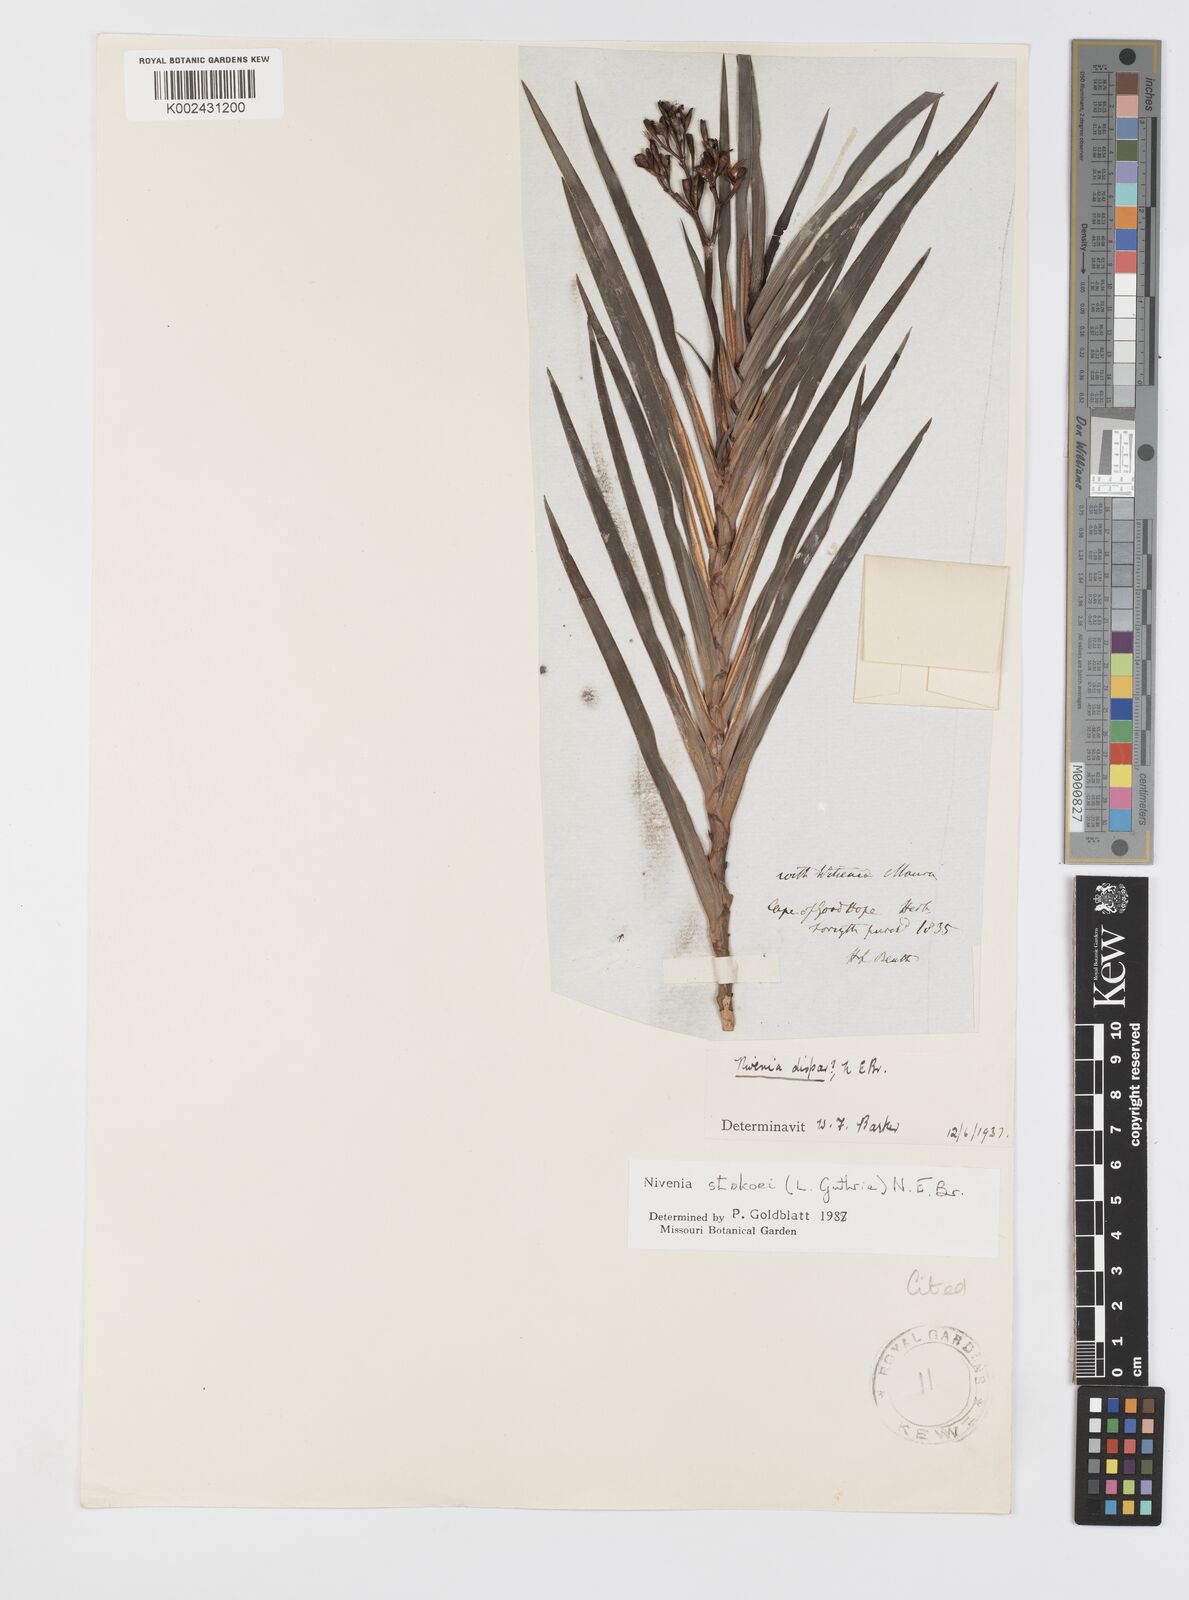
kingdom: Plantae
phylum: Tracheophyta
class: Liliopsida
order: Asparagales
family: Iridaceae
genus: Nivenia
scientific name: Nivenia stokoei
